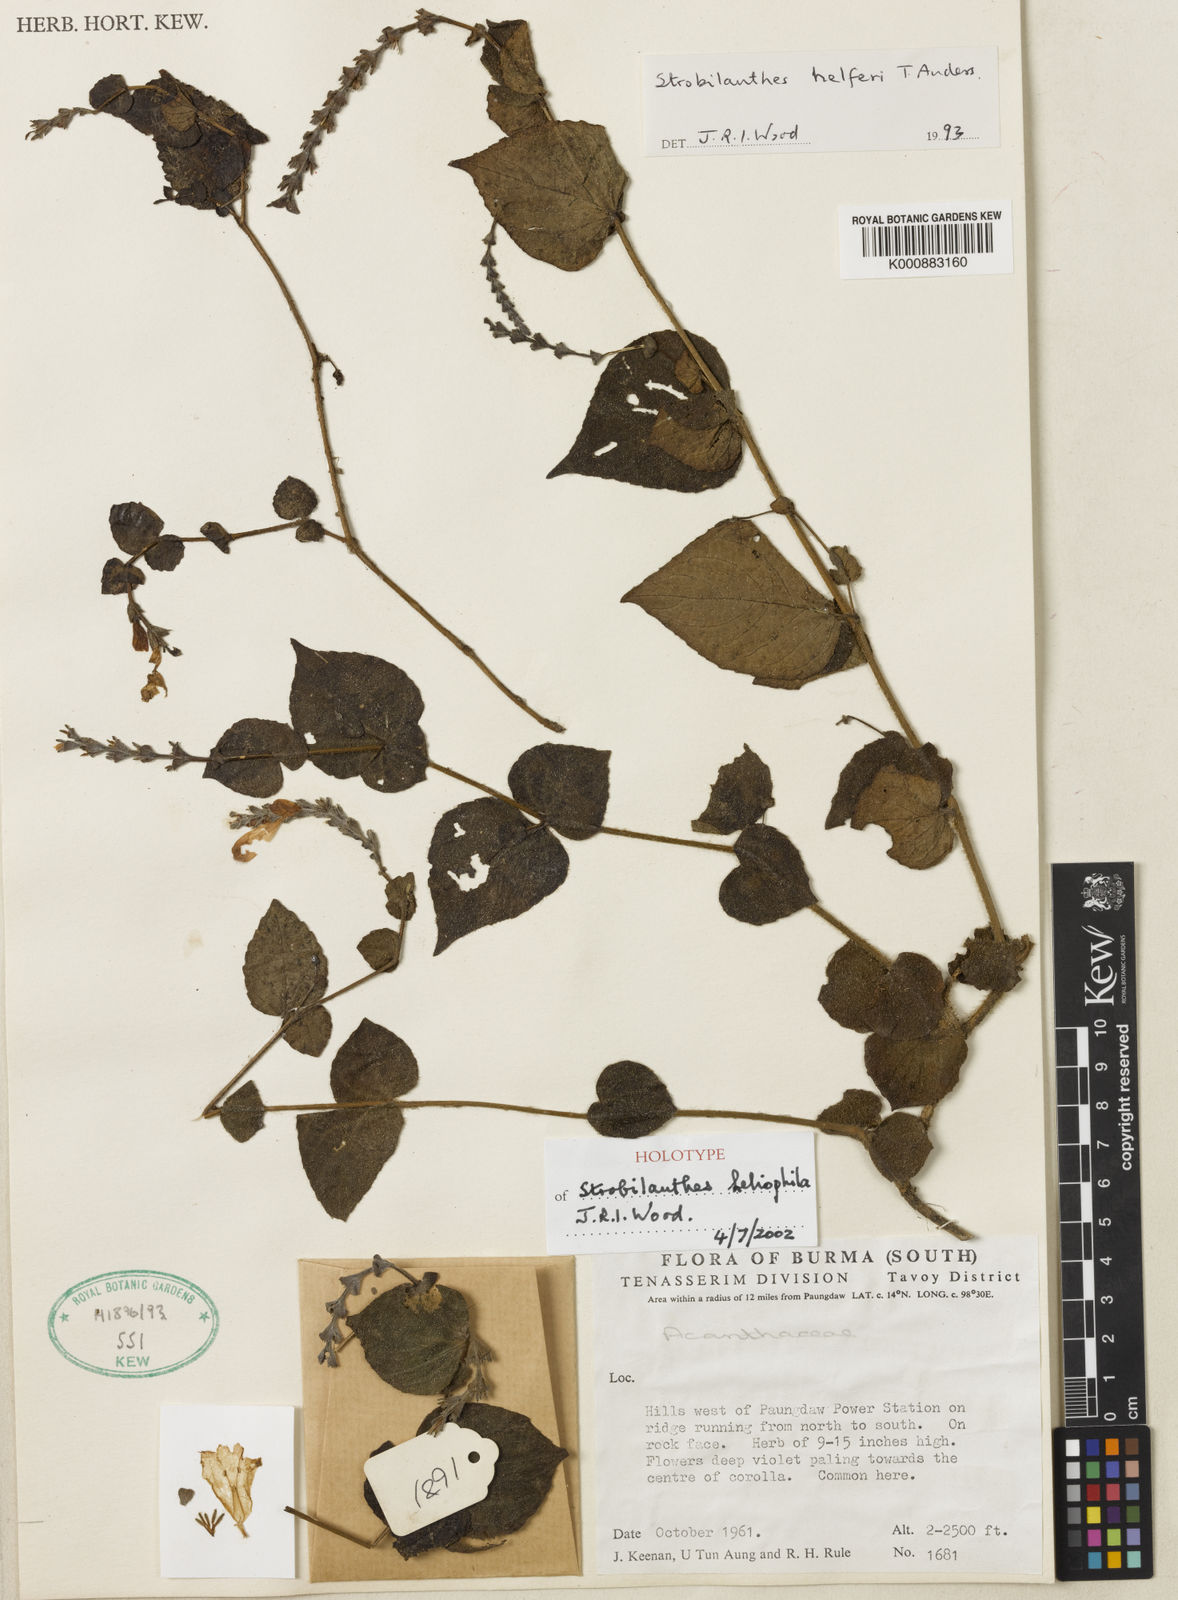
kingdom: Plantae
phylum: Tracheophyta
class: Magnoliopsida
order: Lamiales
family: Acanthaceae
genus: Strobilanthes
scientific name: Strobilanthes heliophila
